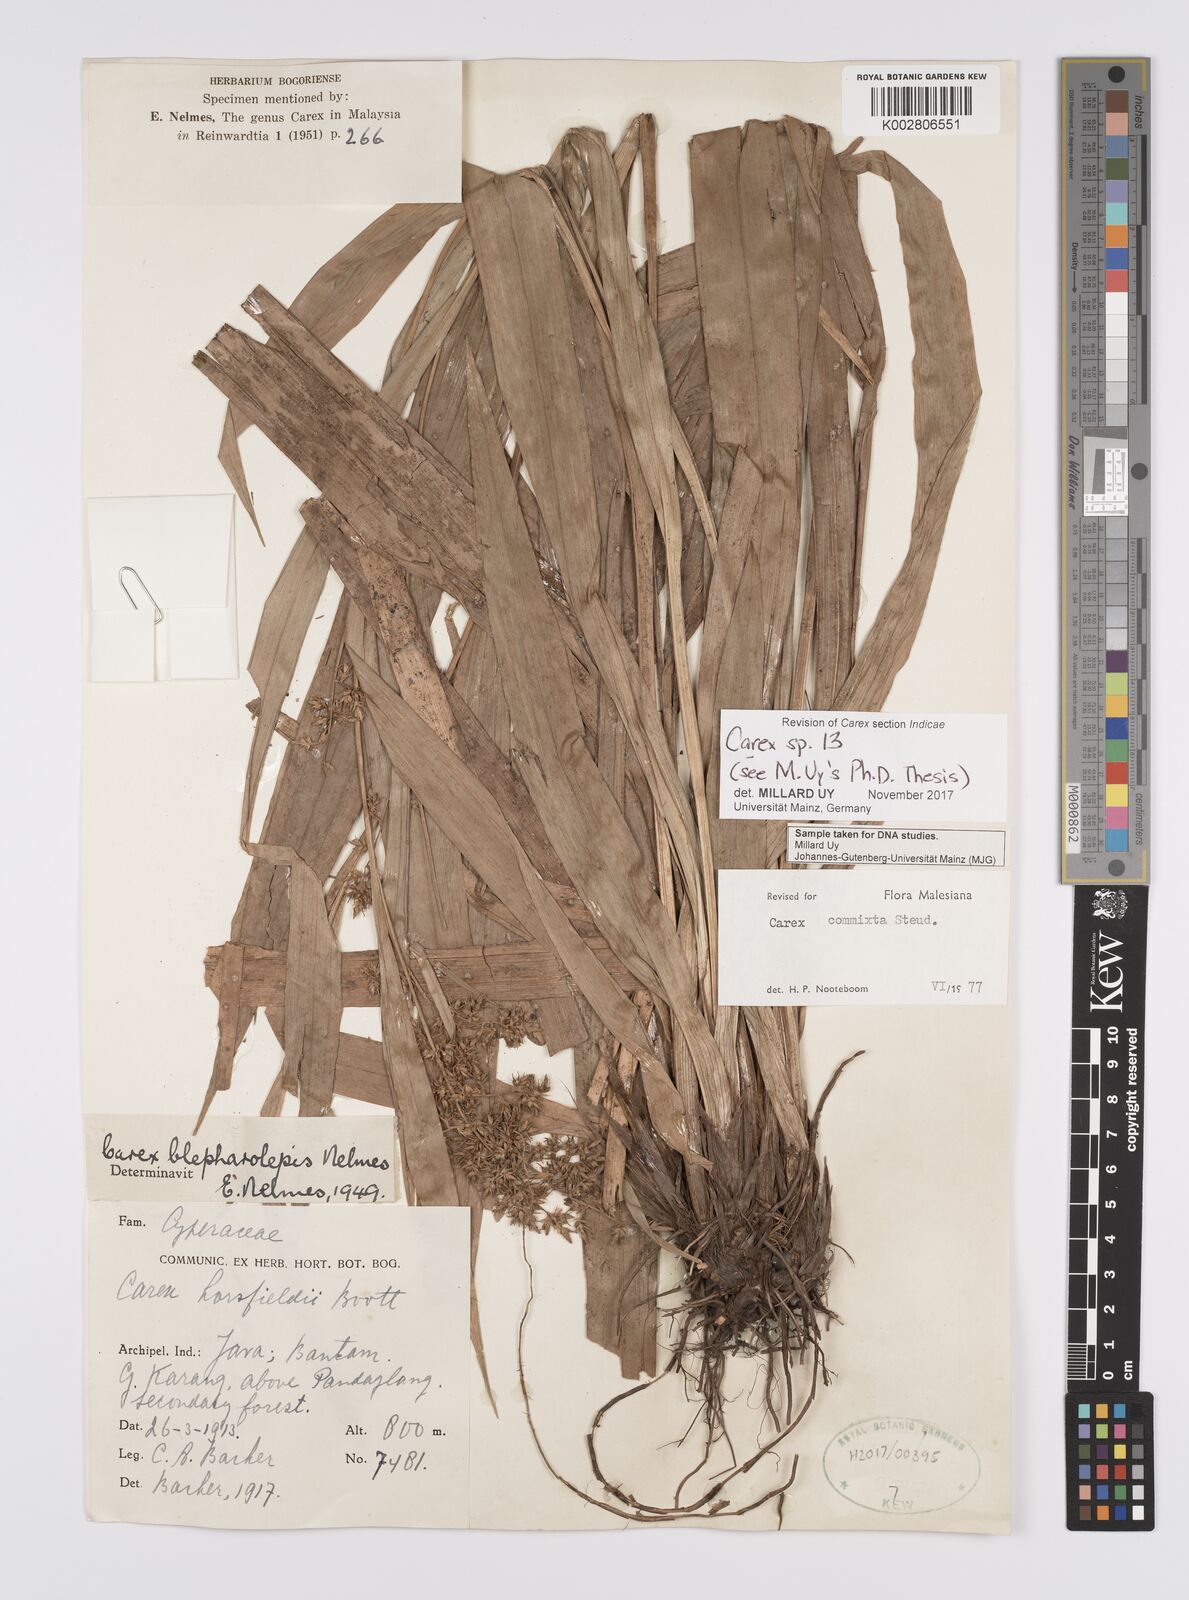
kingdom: Plantae
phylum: Tracheophyta
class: Liliopsida
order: Poales
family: Cyperaceae
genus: Carex
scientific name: Carex
